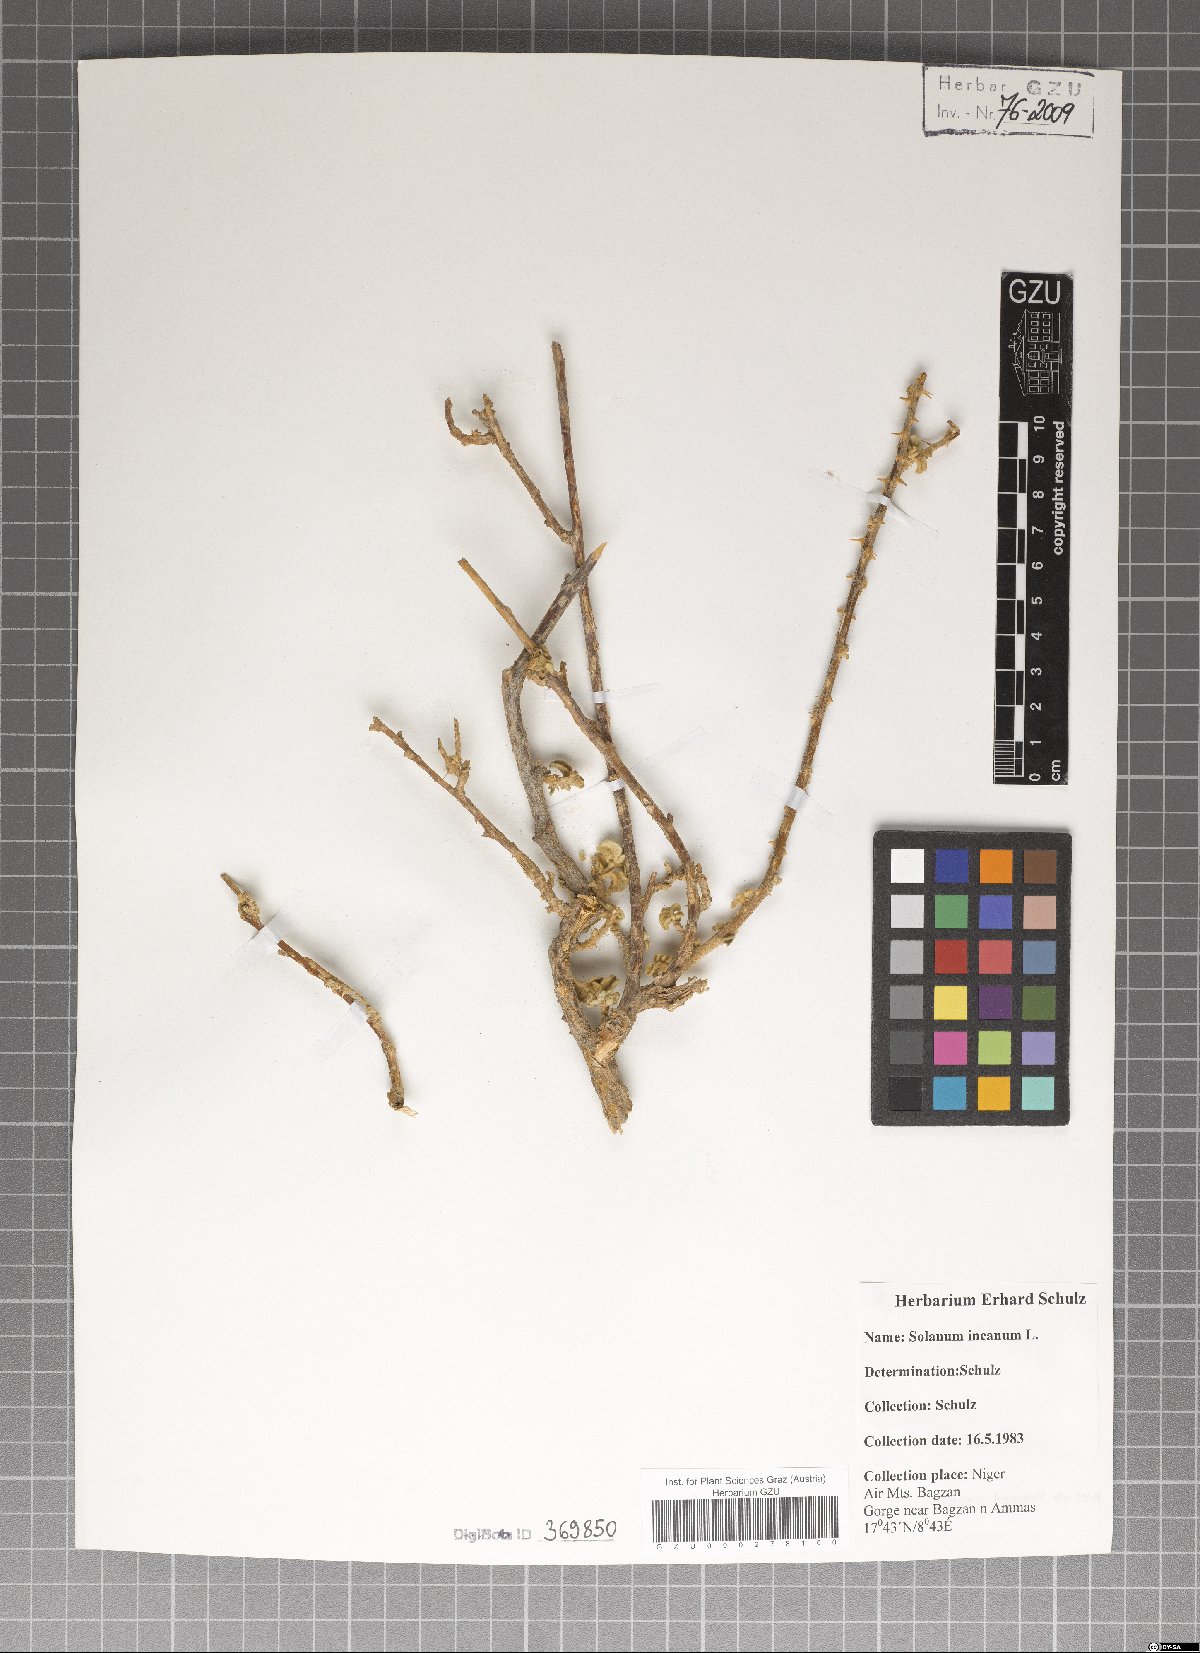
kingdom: Plantae
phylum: Tracheophyta
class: Magnoliopsida
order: Solanales
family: Solanaceae
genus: Solanum
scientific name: Solanum incanum
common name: Bitter apple
